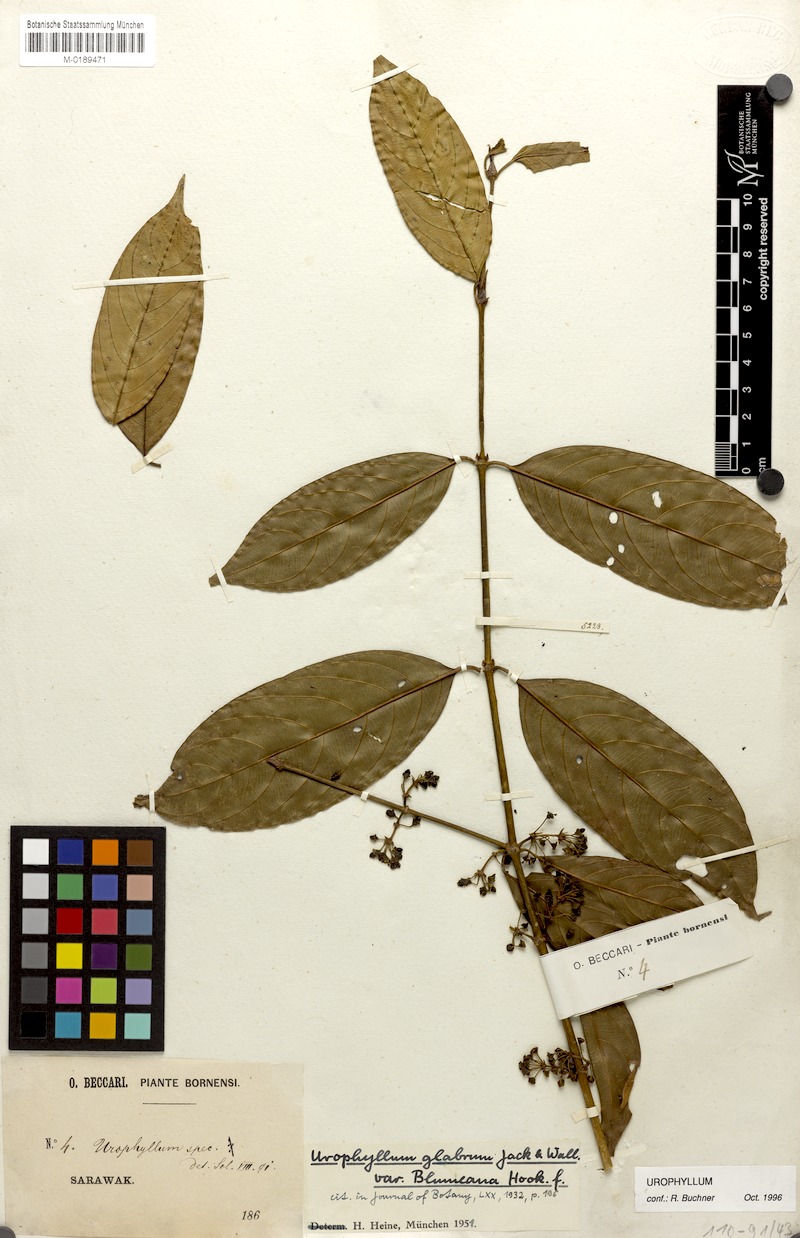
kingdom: Plantae
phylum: Tracheophyta
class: Magnoliopsida
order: Gentianales
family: Rubiaceae
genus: Urophyllum
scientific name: Urophyllum arboreum
